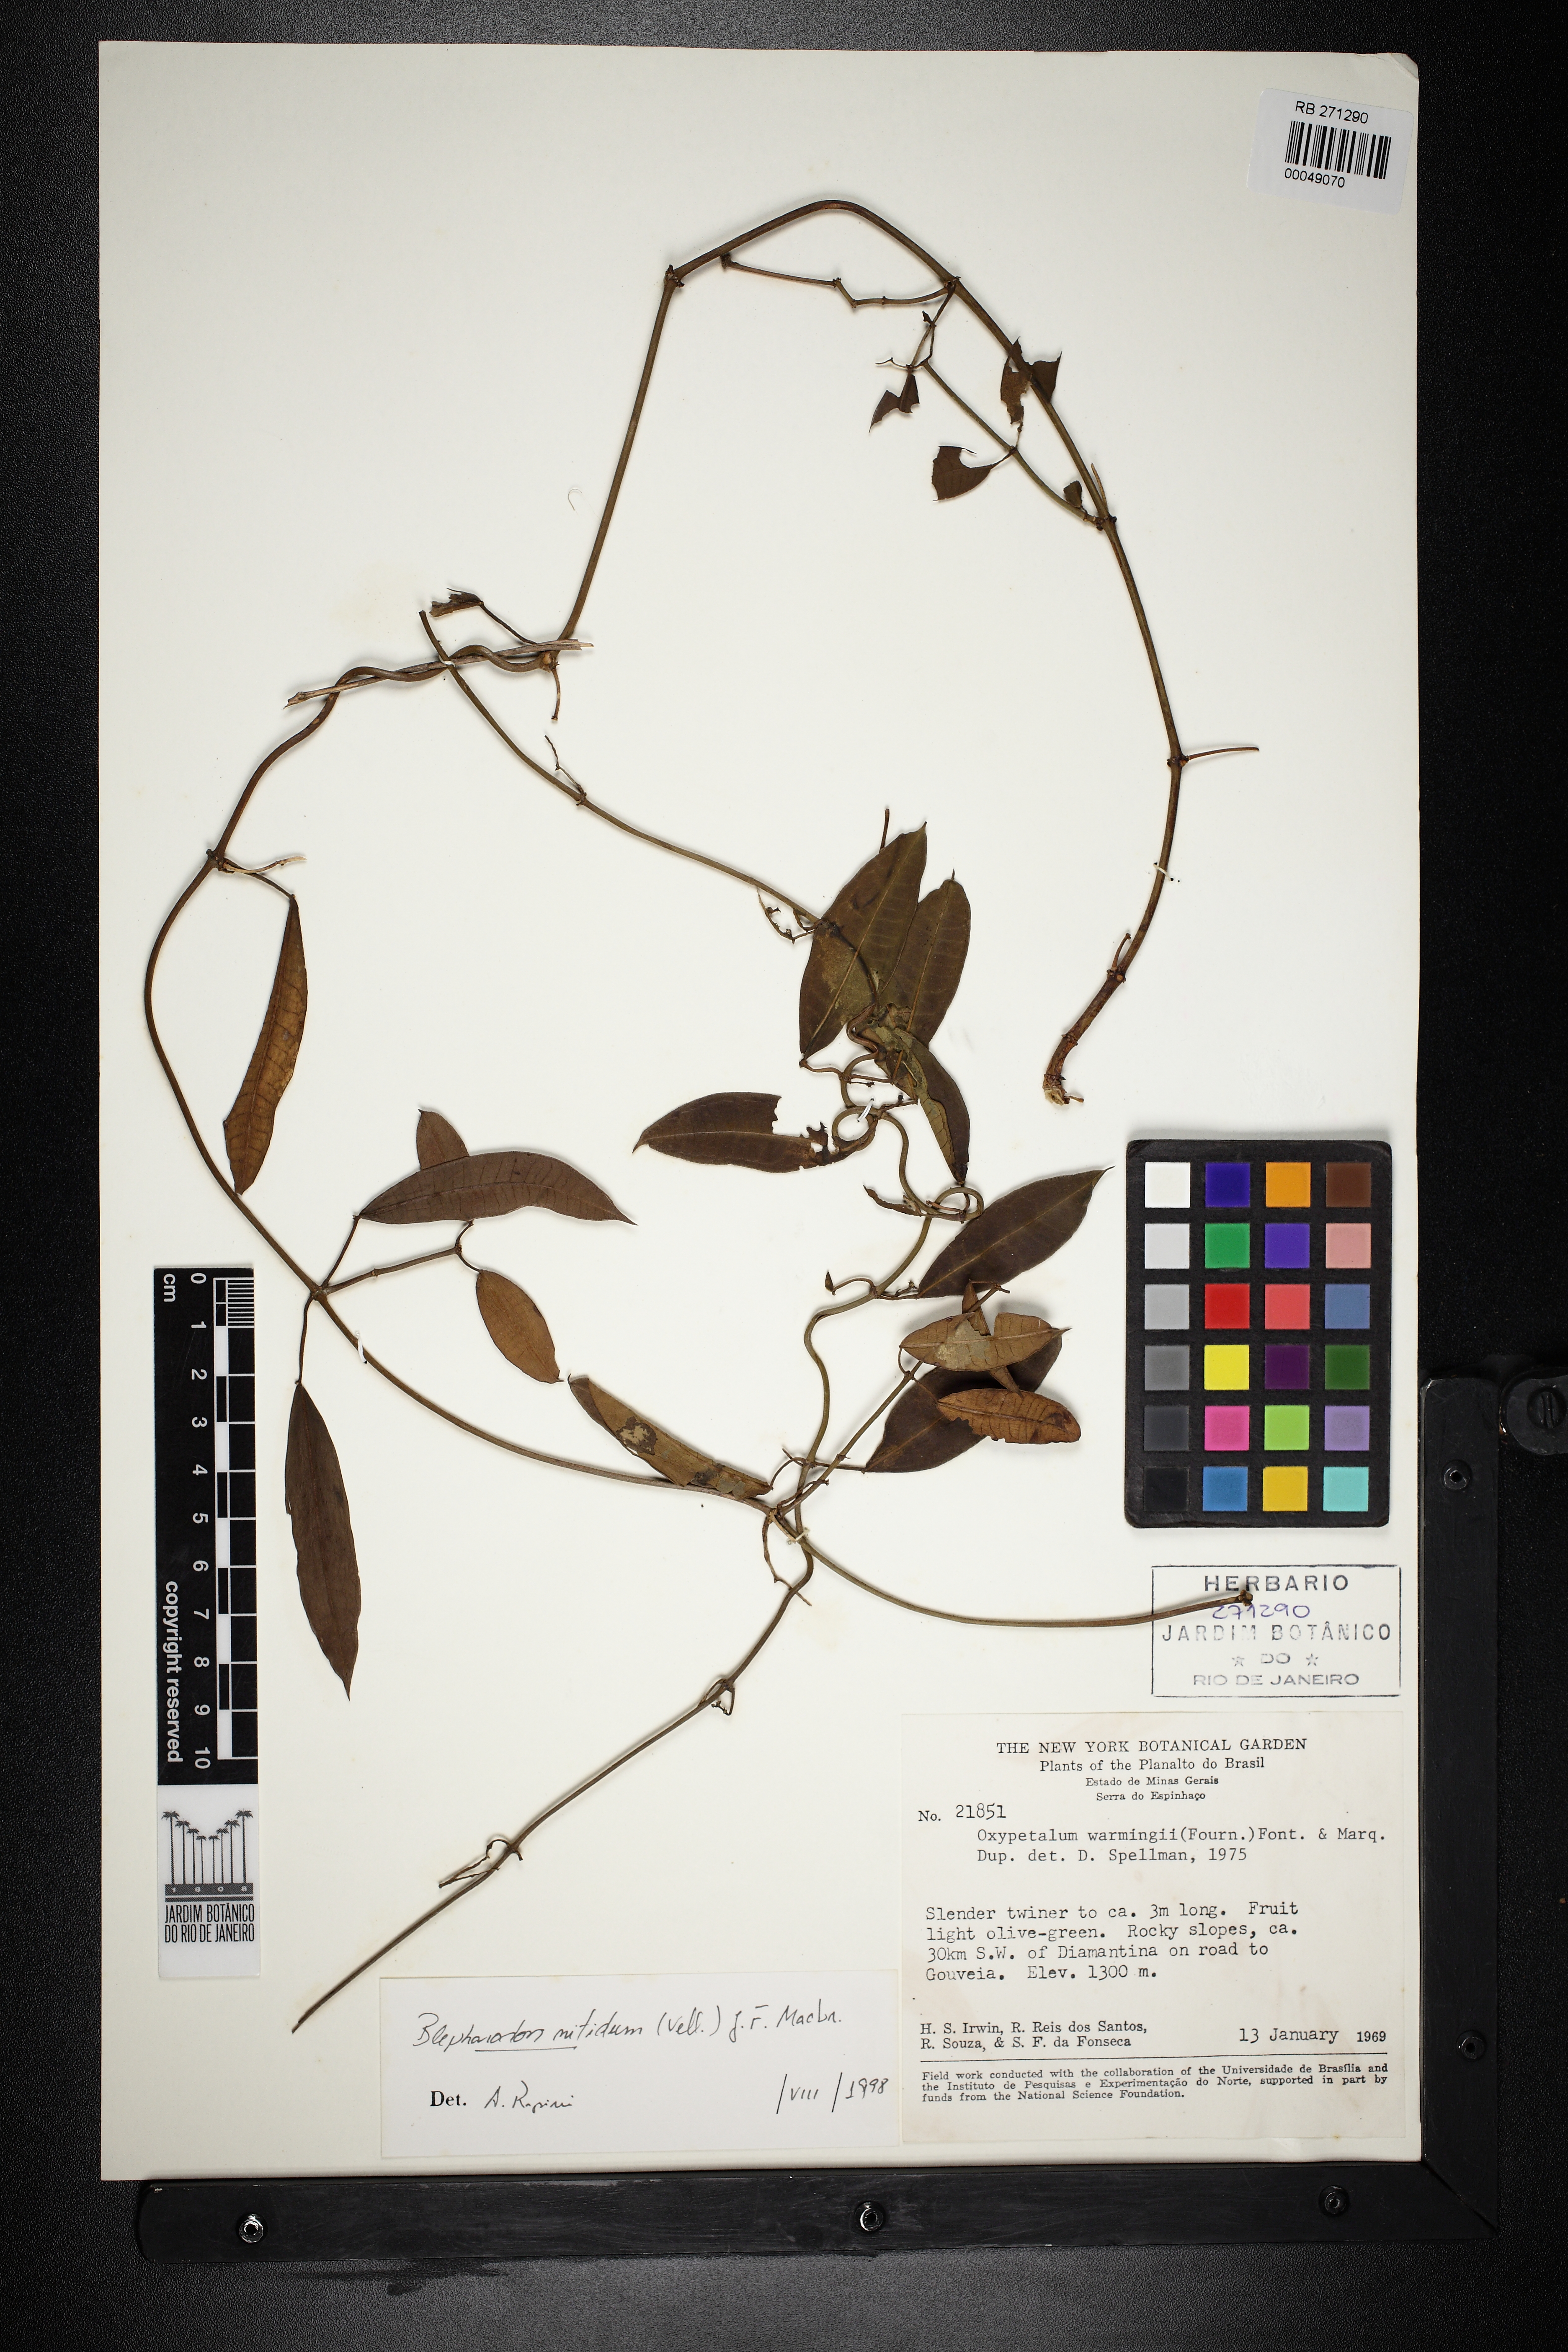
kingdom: Plantae
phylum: Tracheophyta
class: Magnoliopsida
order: Gentianales
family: Apocynaceae
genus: Blepharodon
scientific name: Blepharodon pictum
